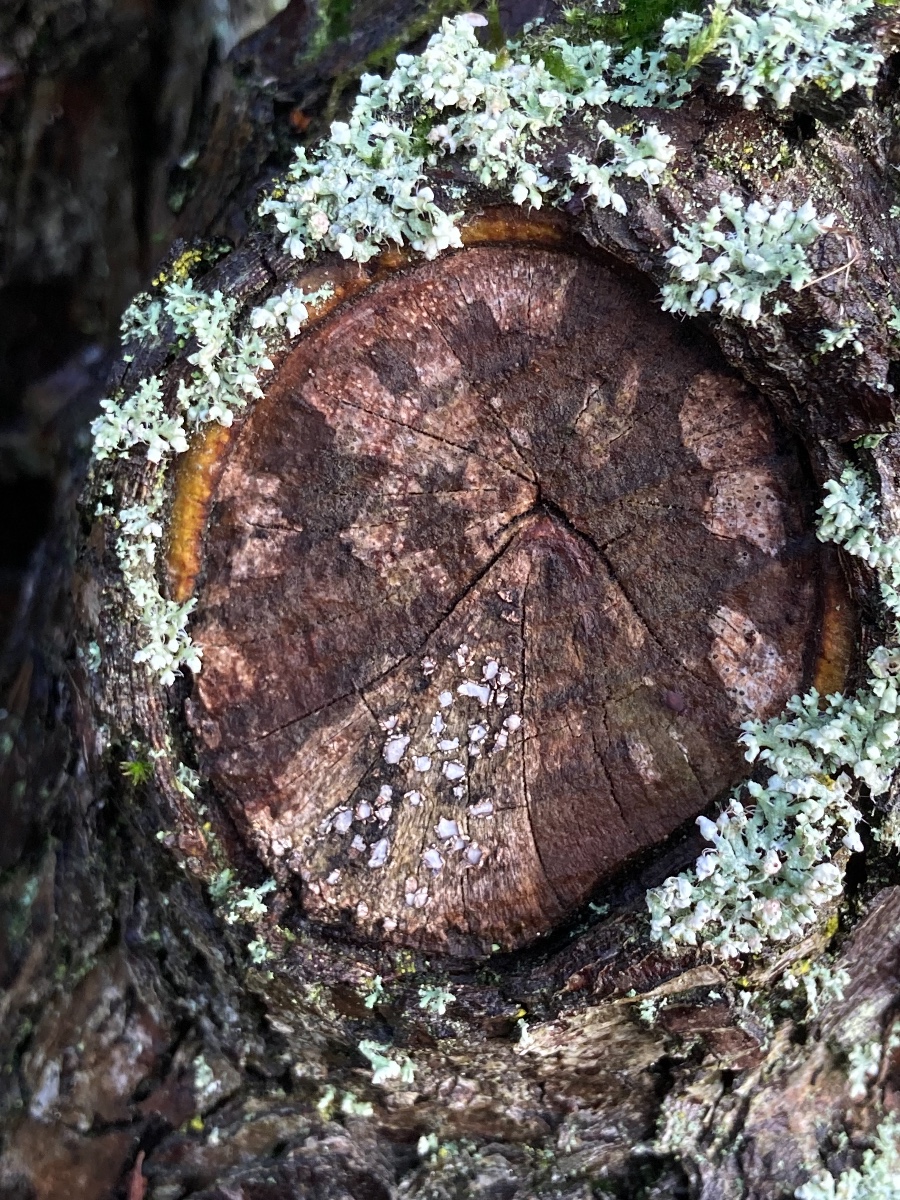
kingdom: Fungi
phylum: Ascomycota
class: Leotiomycetes
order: Chaetomellales
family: Marthamycetaceae
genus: Propolis
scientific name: Propolis farinosa
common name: almindelig vedsprængerskive
